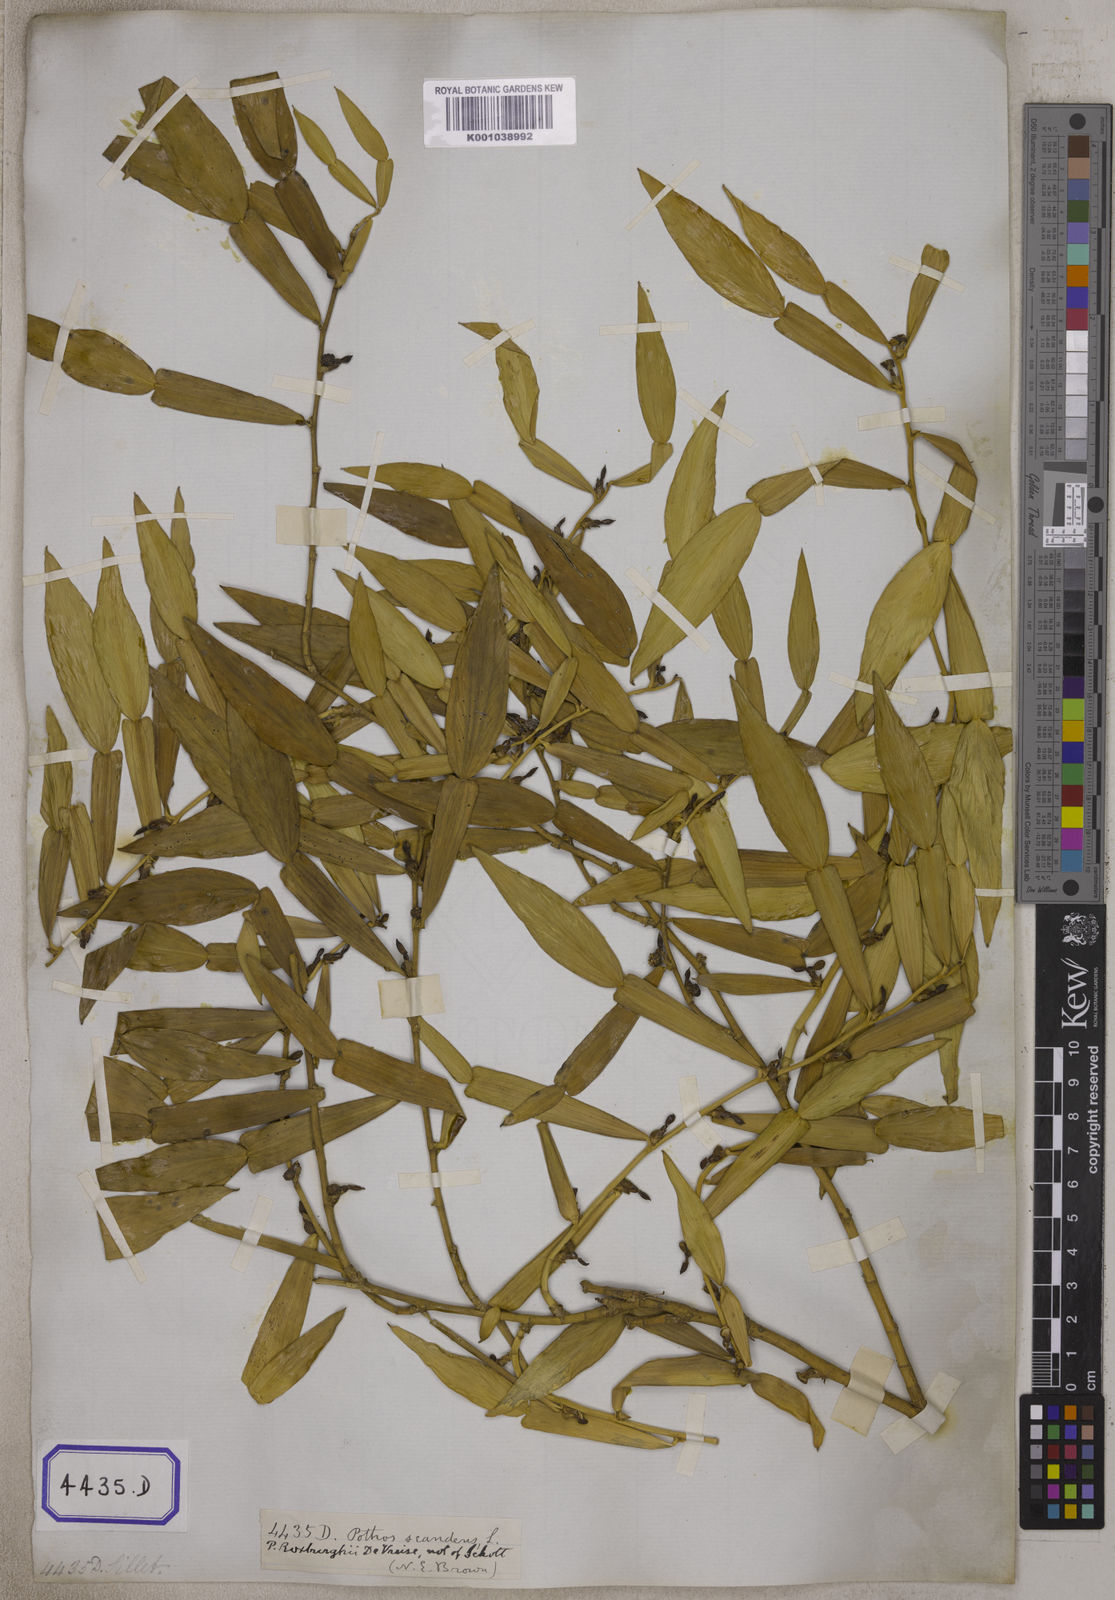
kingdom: Plantae
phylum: Tracheophyta
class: Liliopsida
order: Alismatales
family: Araceae
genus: Pothos
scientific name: Pothos scandens
